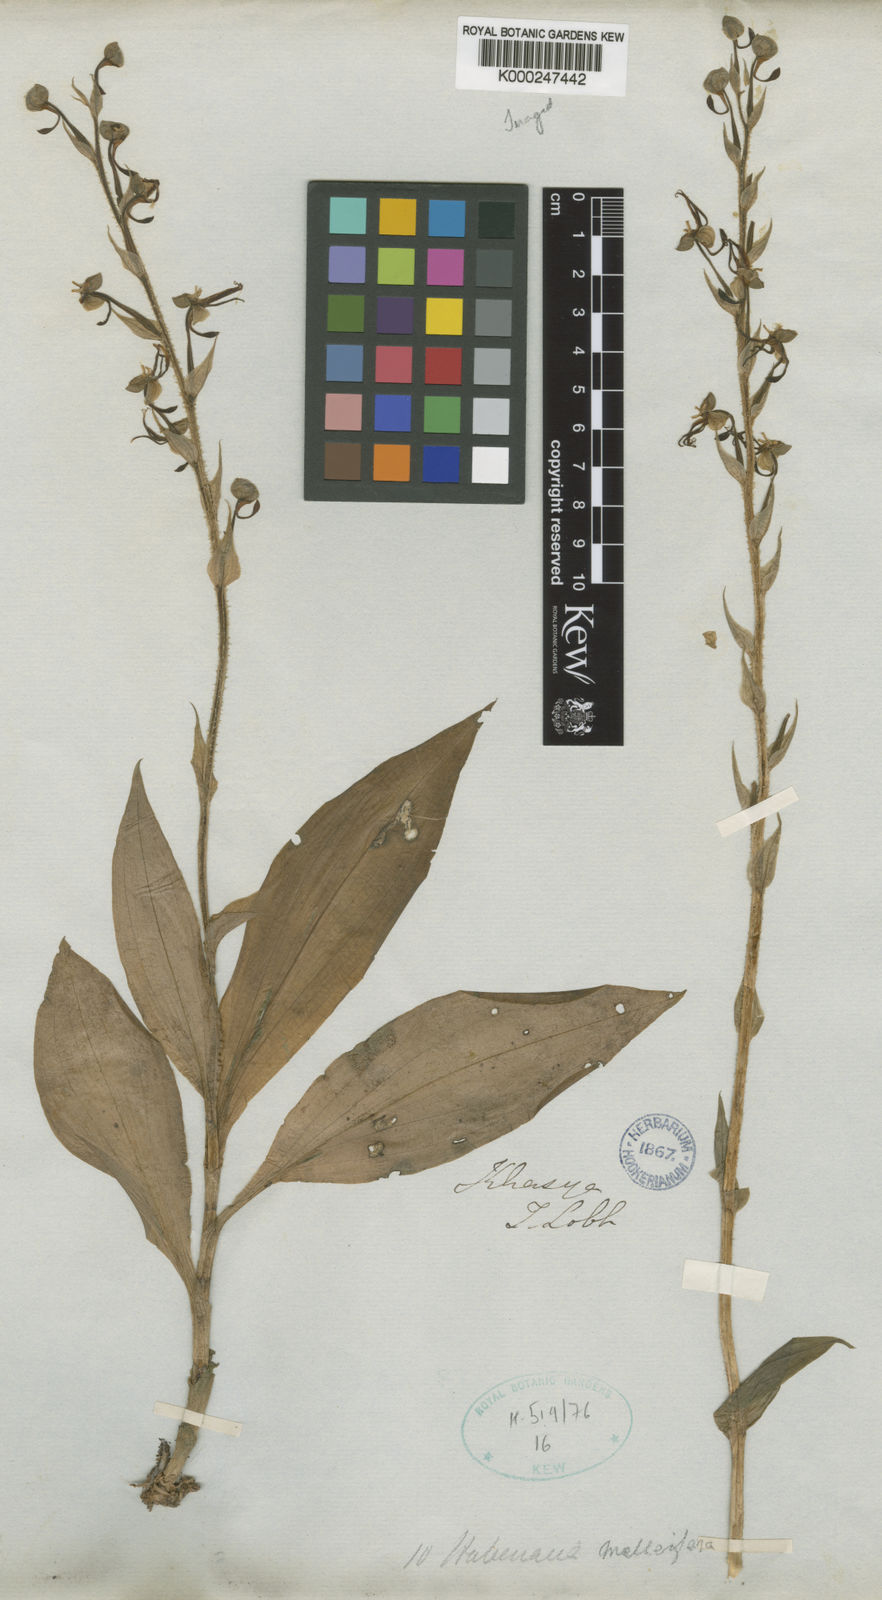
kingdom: Plantae
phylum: Tracheophyta
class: Liliopsida
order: Asparagales
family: Orchidaceae
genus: Habenaria
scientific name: Habenaria malleifera
